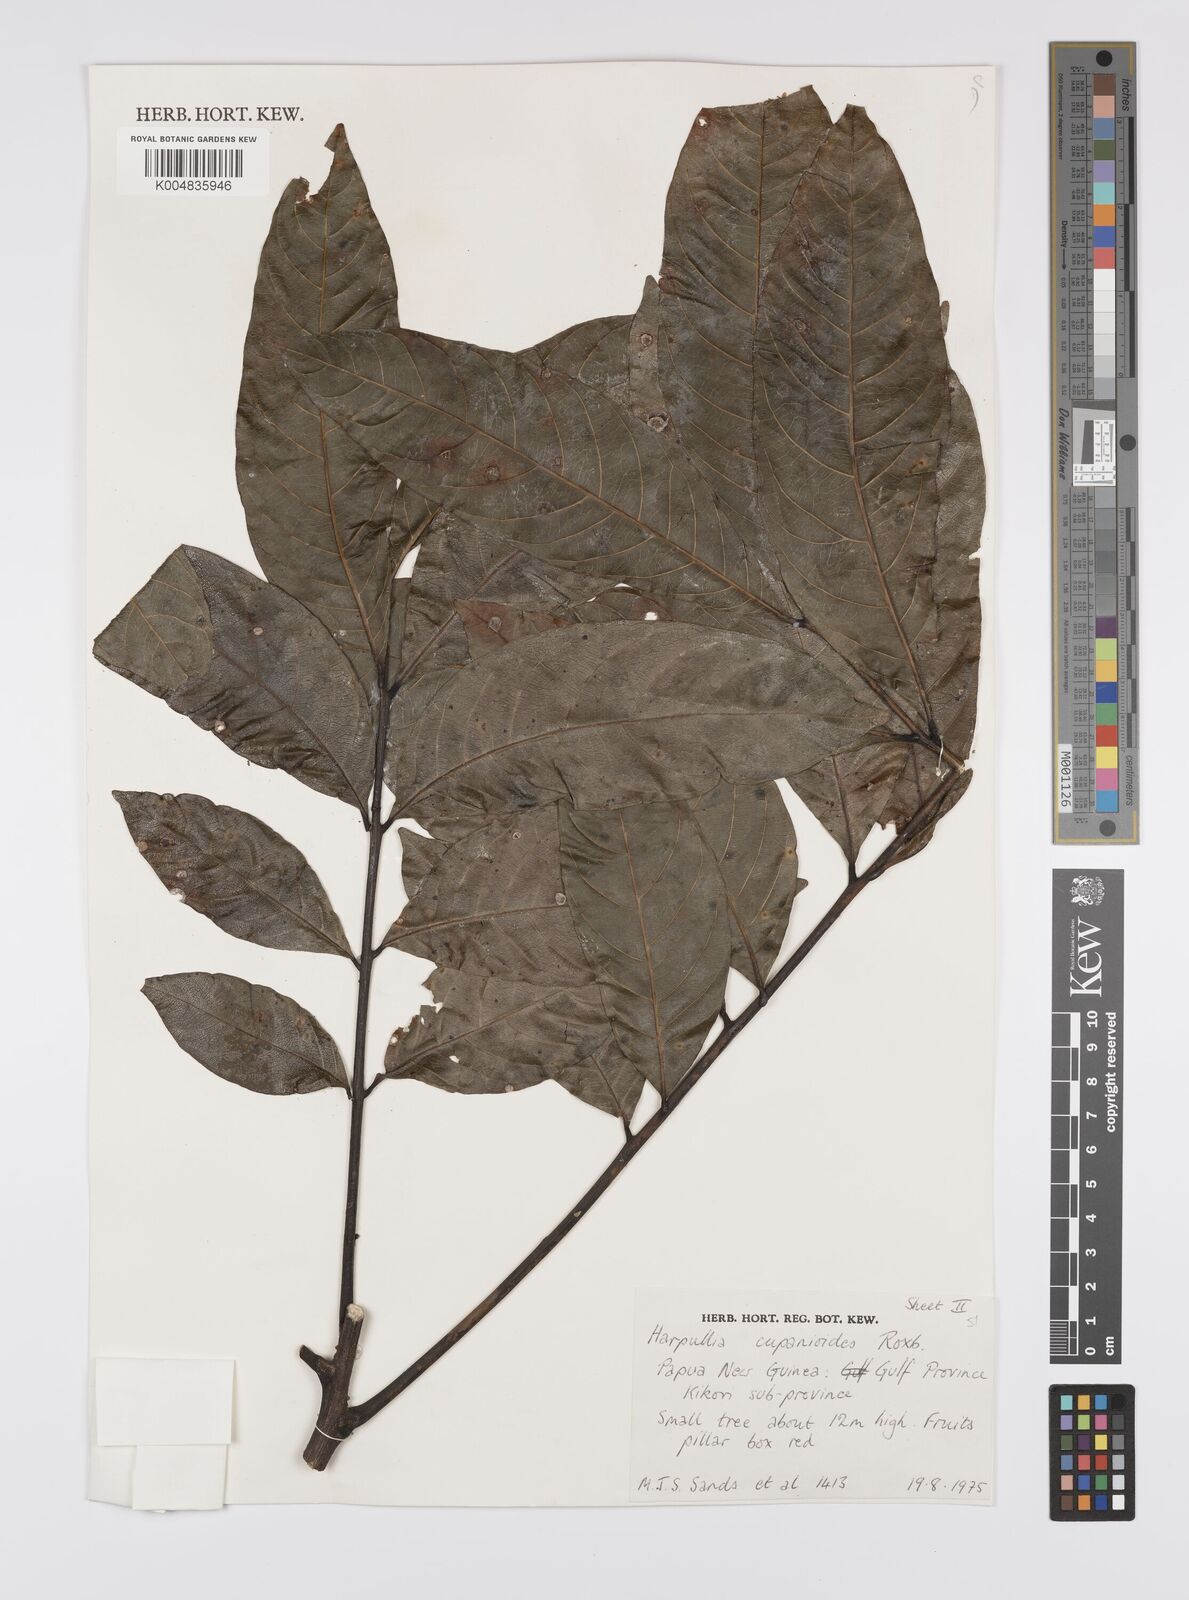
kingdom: Plantae
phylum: Tracheophyta
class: Magnoliopsida
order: Sapindales
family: Sapindaceae
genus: Harpullia
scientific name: Harpullia cupanioides
